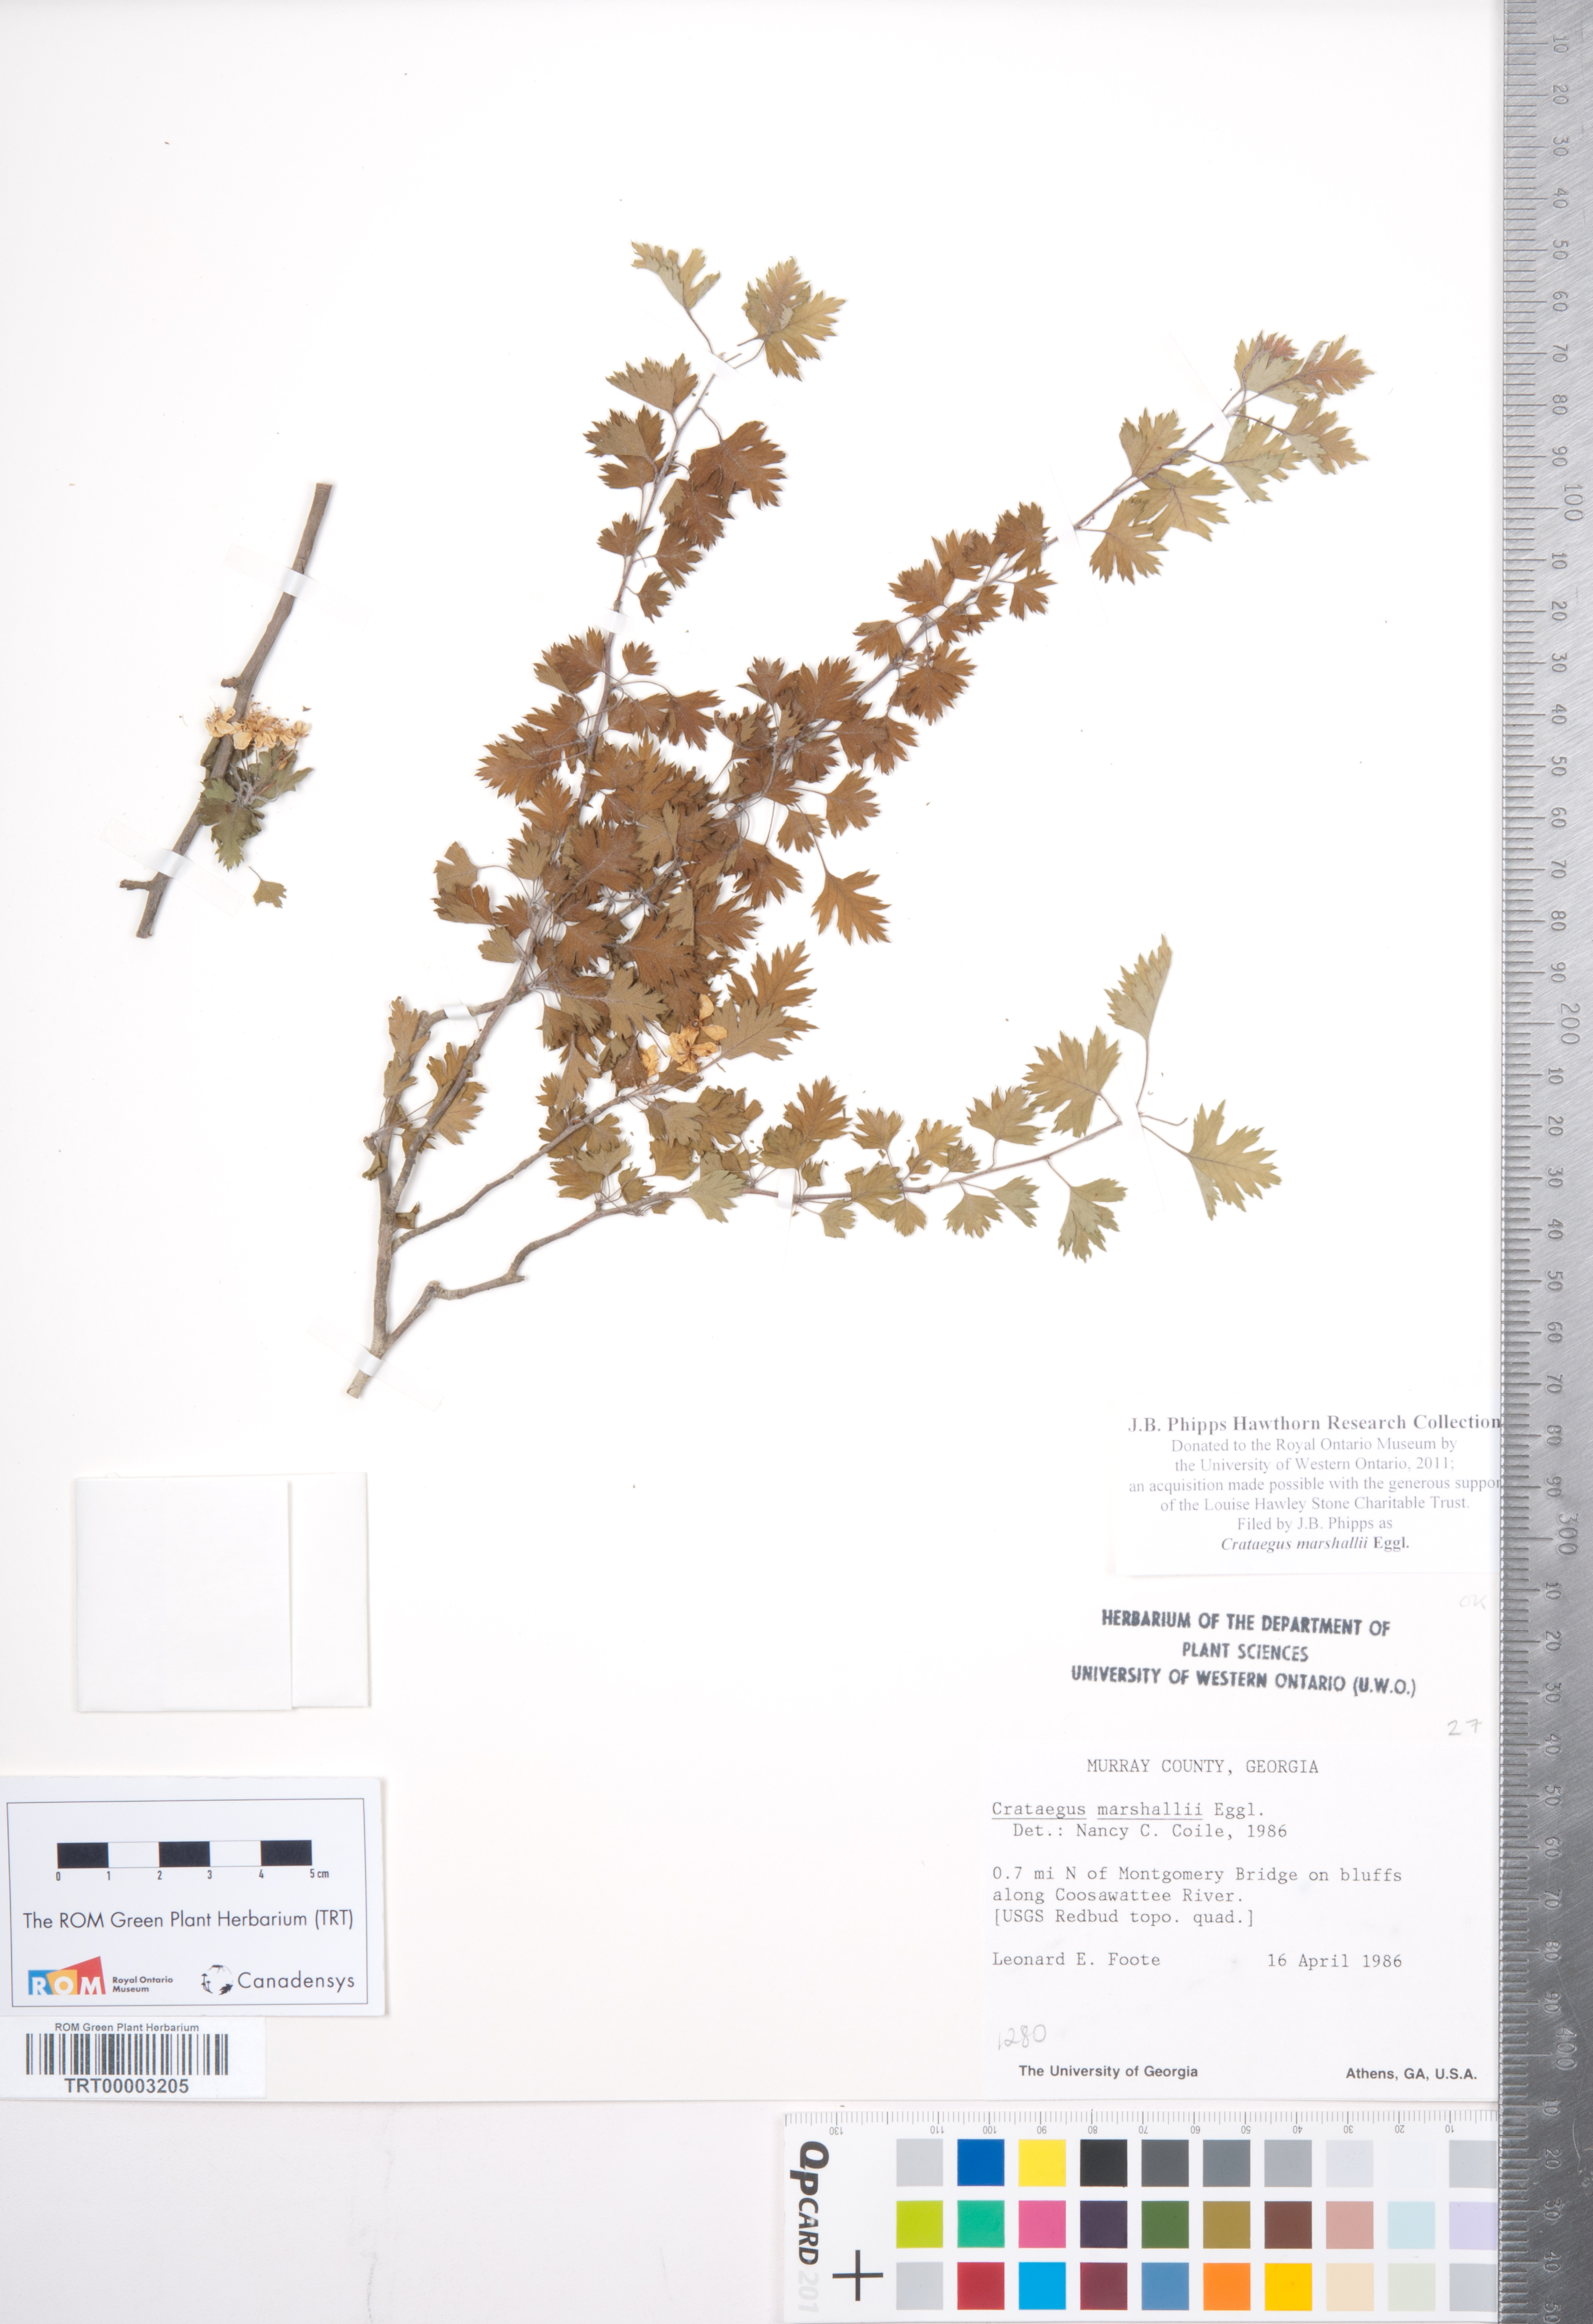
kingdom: Plantae
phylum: Tracheophyta
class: Magnoliopsida
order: Rosales
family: Rosaceae
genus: Crataegus
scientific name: Crataegus marshallii
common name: Parsley-hawthorn
